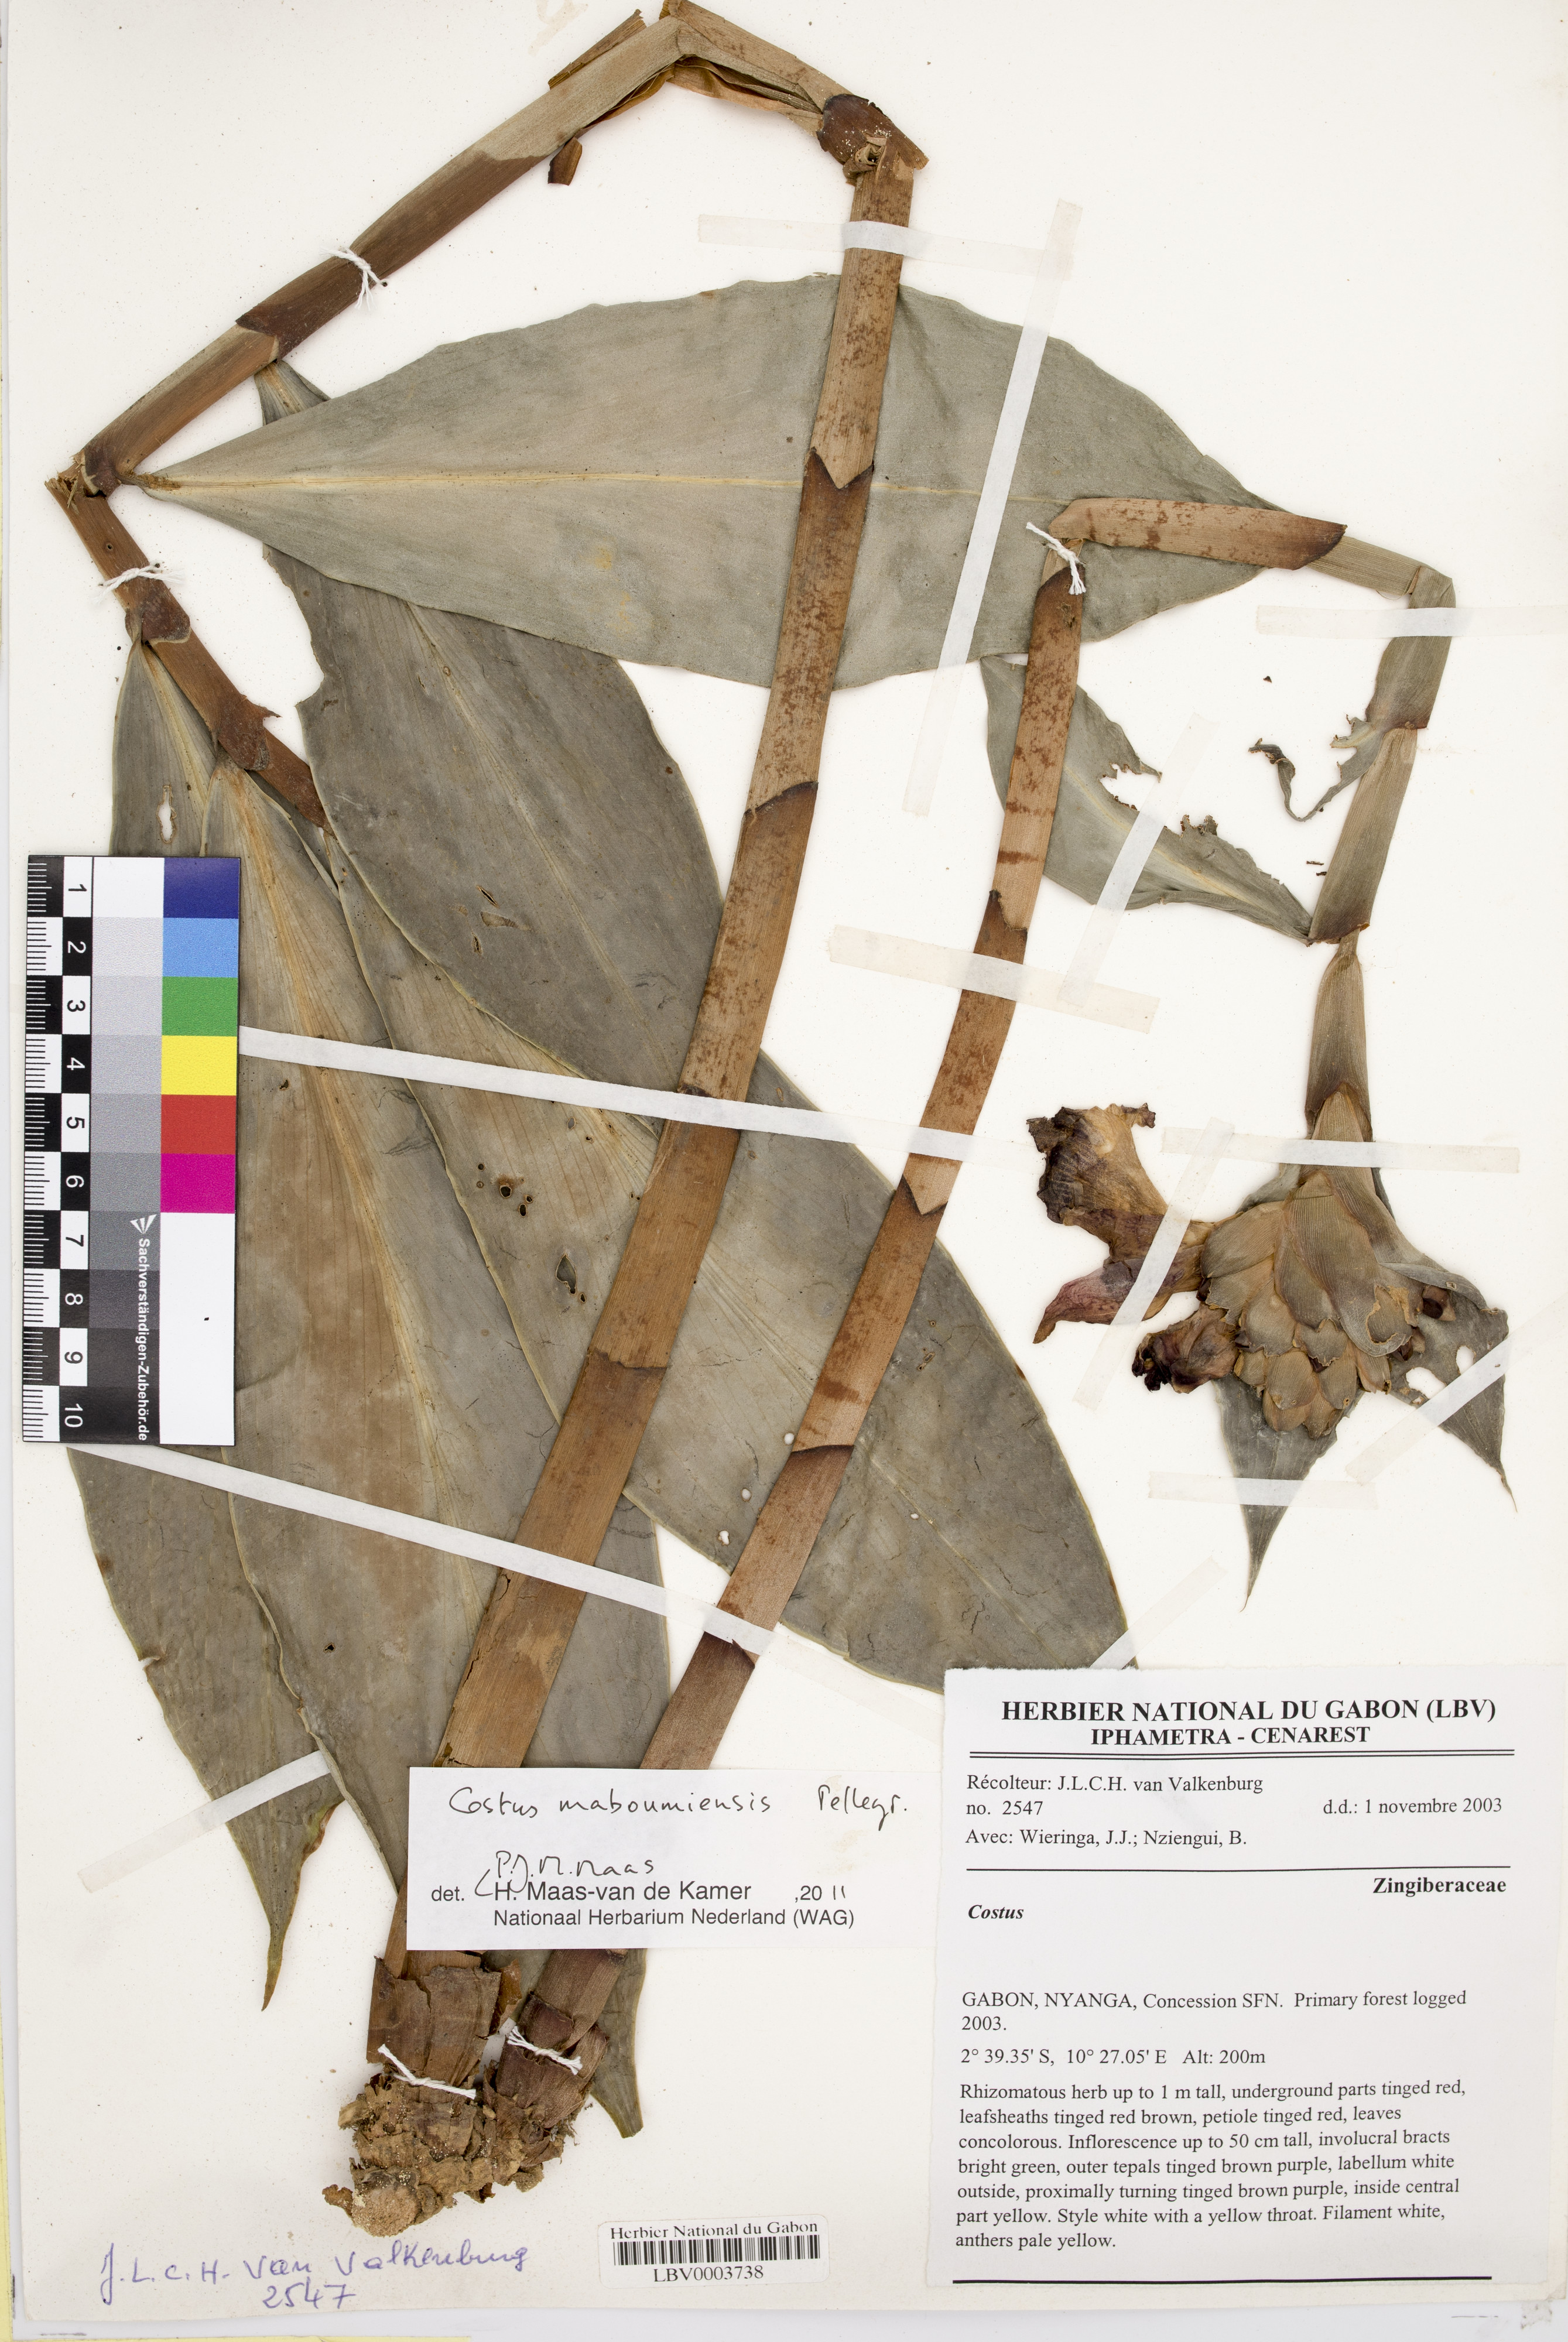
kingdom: Plantae
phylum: Tracheophyta
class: Liliopsida
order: Zingiberales
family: Costaceae
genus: Costus
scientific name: Costus maboumiensis
